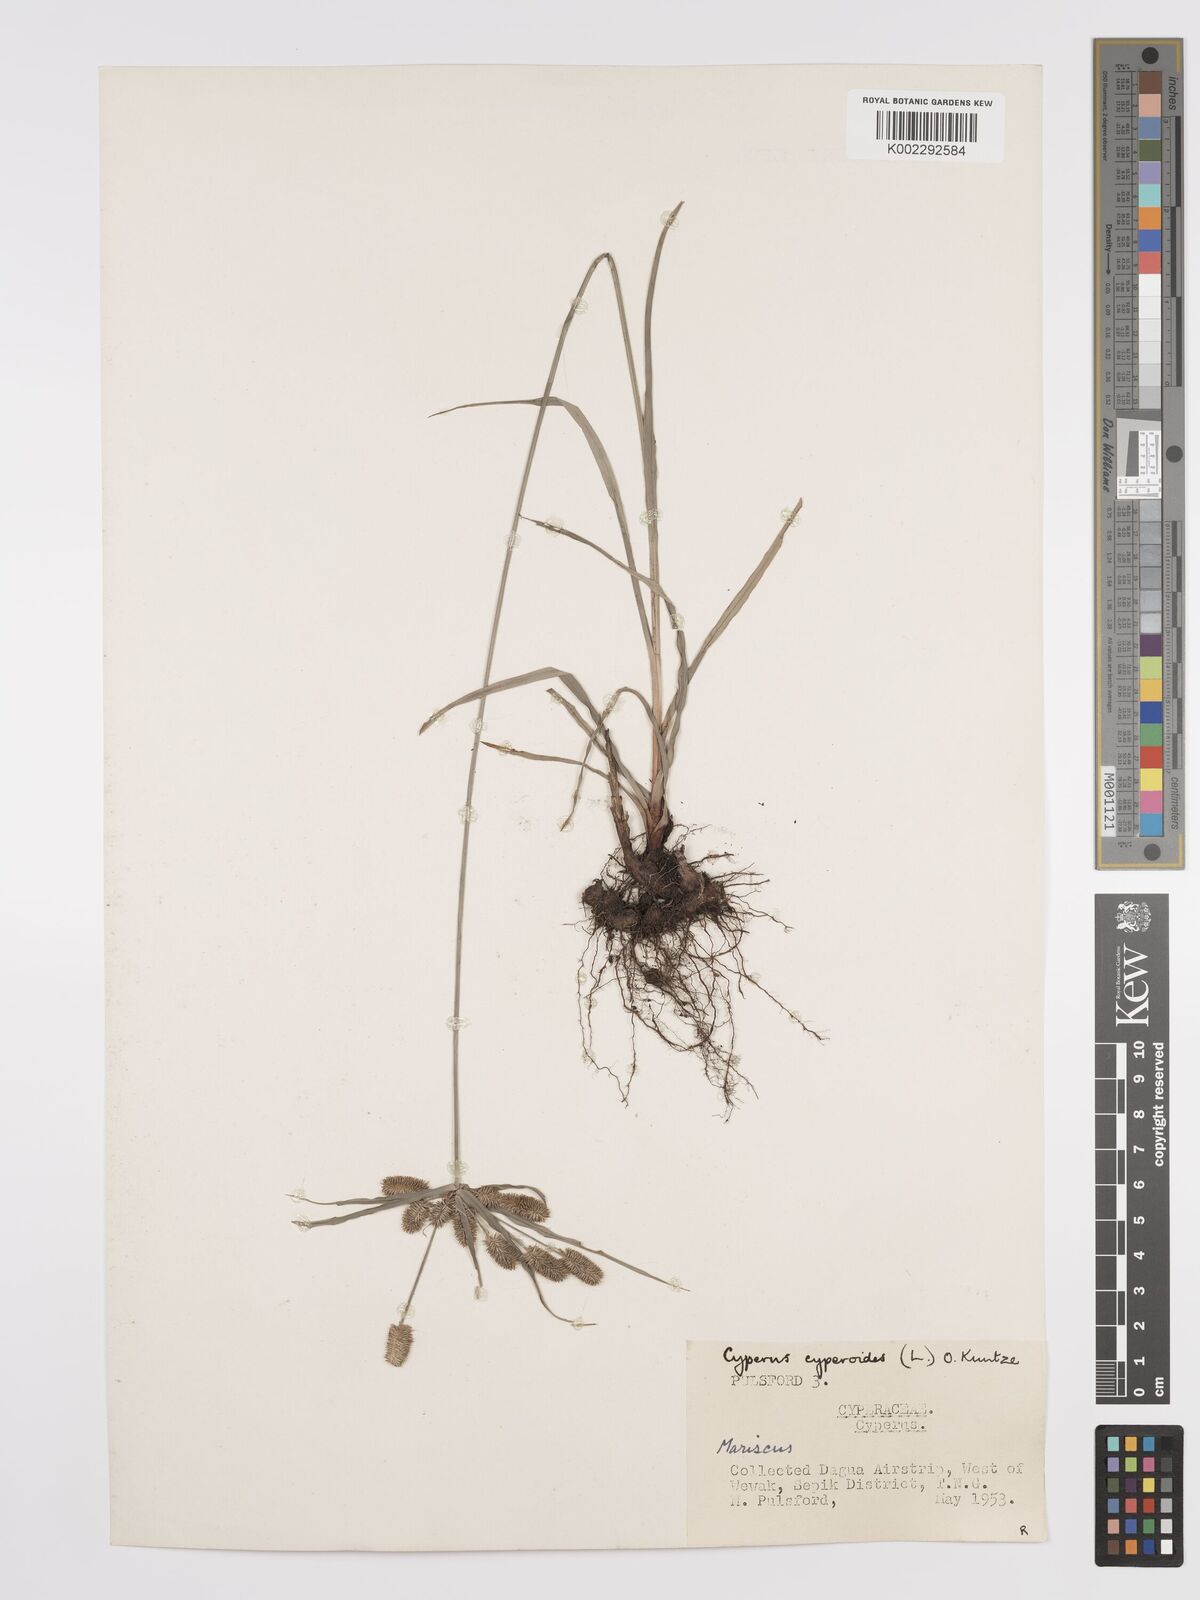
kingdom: Plantae
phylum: Tracheophyta
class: Liliopsida
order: Poales
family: Cyperaceae
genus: Cyperus
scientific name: Cyperus cyperoides
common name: Pacific island flat sedge
